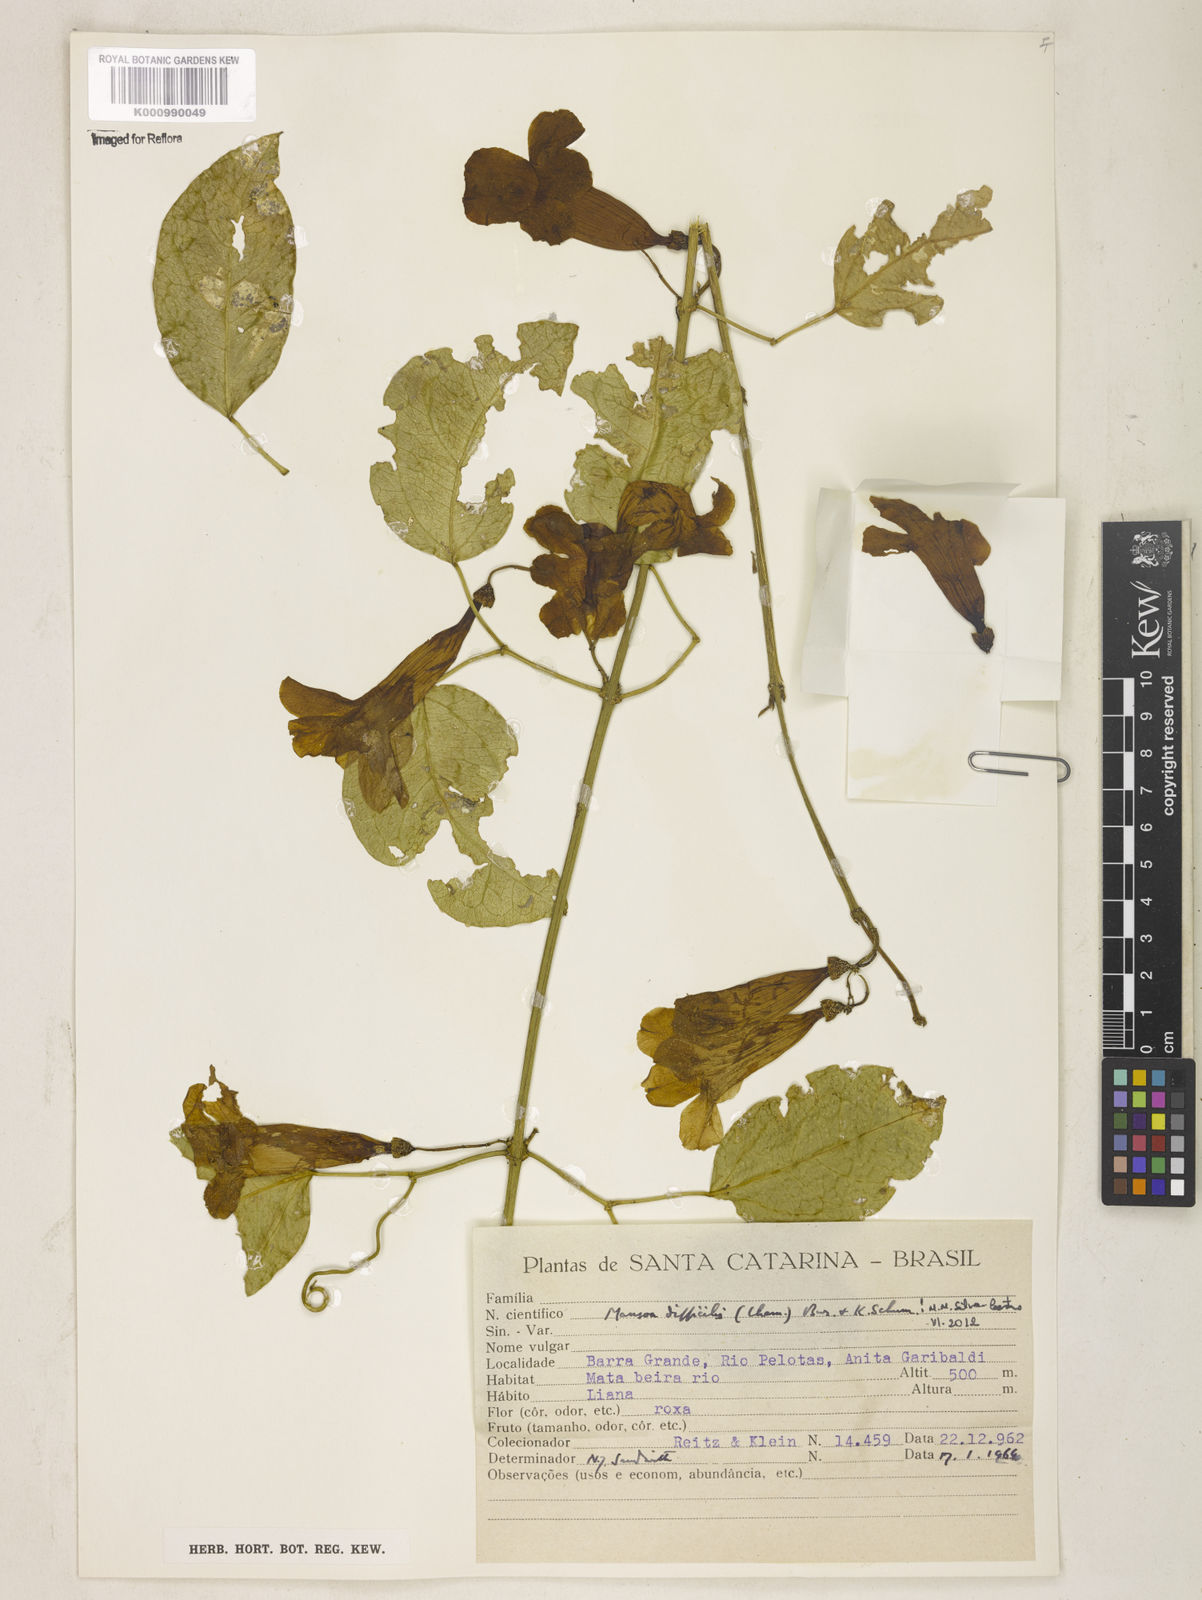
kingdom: Plantae
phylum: Tracheophyta
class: Magnoliopsida
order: Lamiales
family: Bignoniaceae
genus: Mansoa
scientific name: Mansoa difficilis
